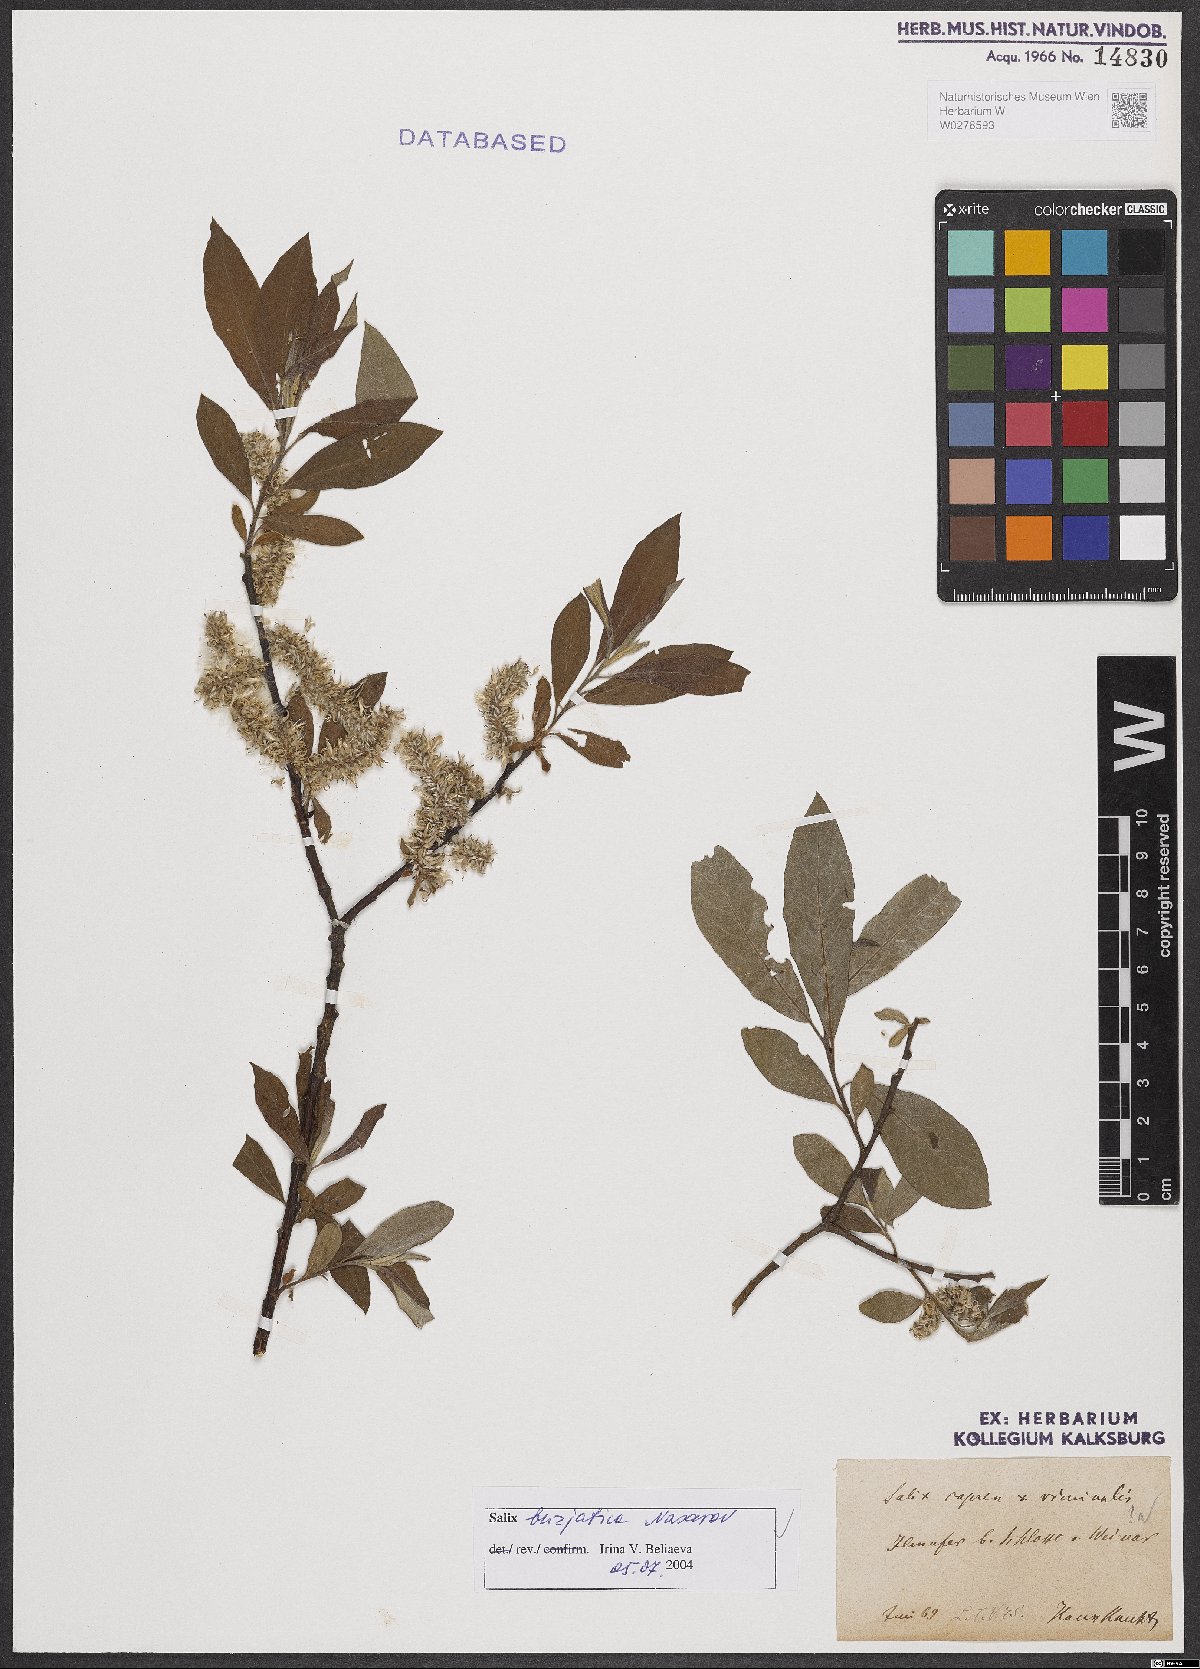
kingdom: Plantae
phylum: Tracheophyta
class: Magnoliopsida
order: Malpighiales
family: Salicaceae
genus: Salix
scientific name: Salix gmelinii
